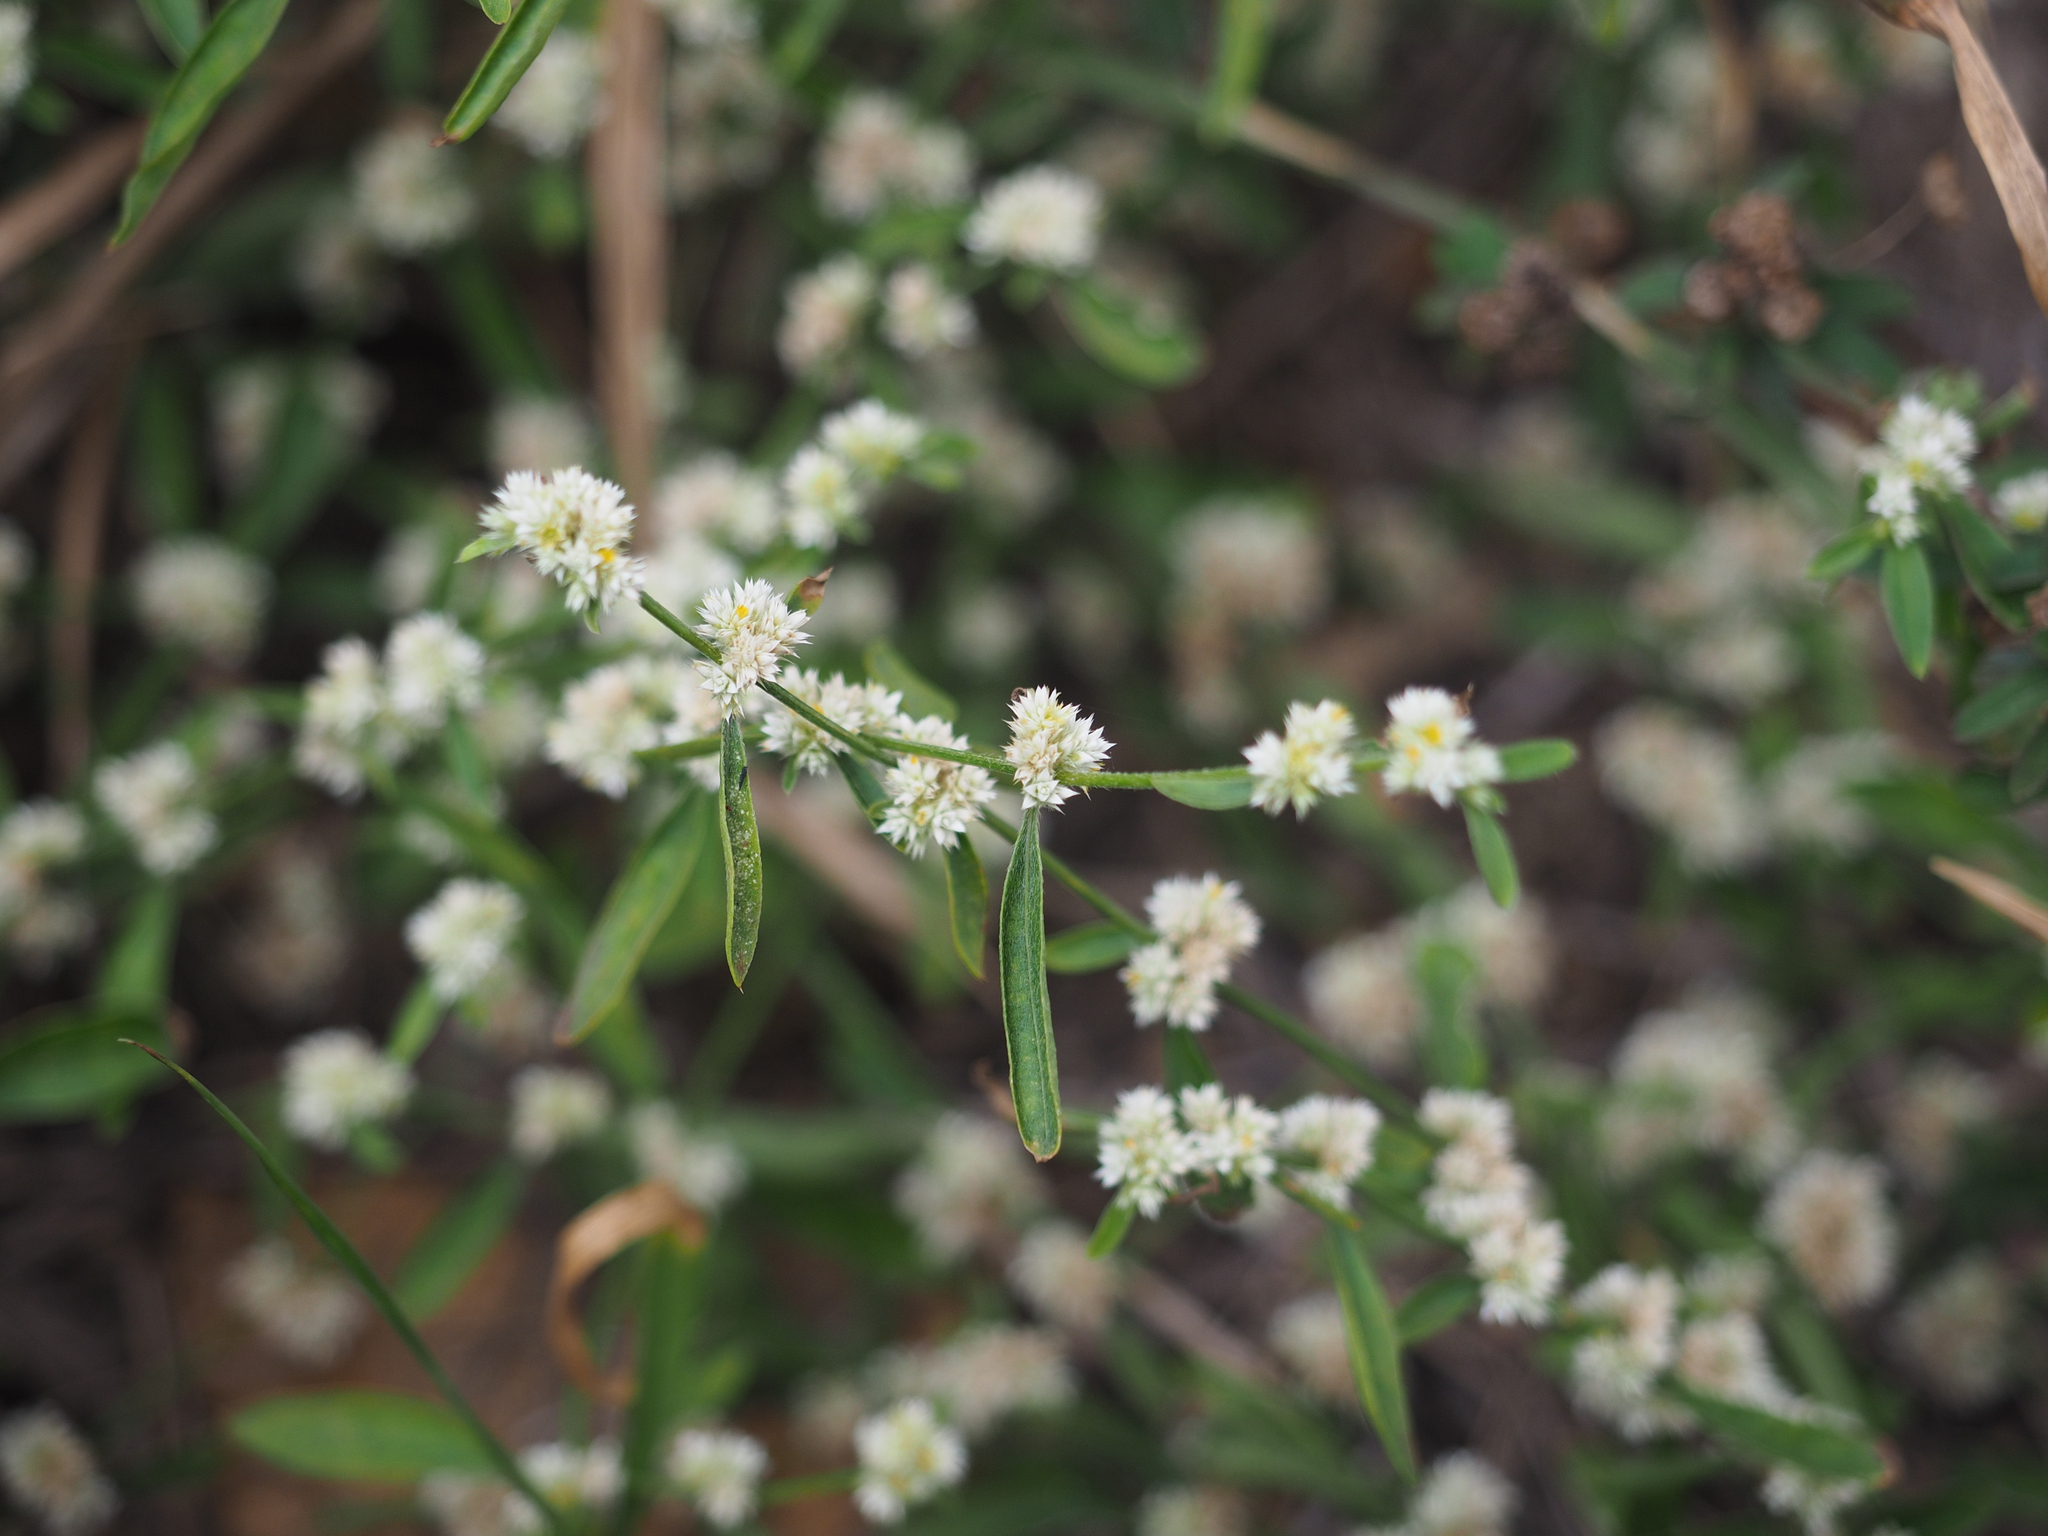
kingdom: Plantae
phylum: Tracheophyta
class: Magnoliopsida
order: Caryophyllales
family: Amaranthaceae
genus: Alternanthera
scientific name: Alternanthera bettzickiana
